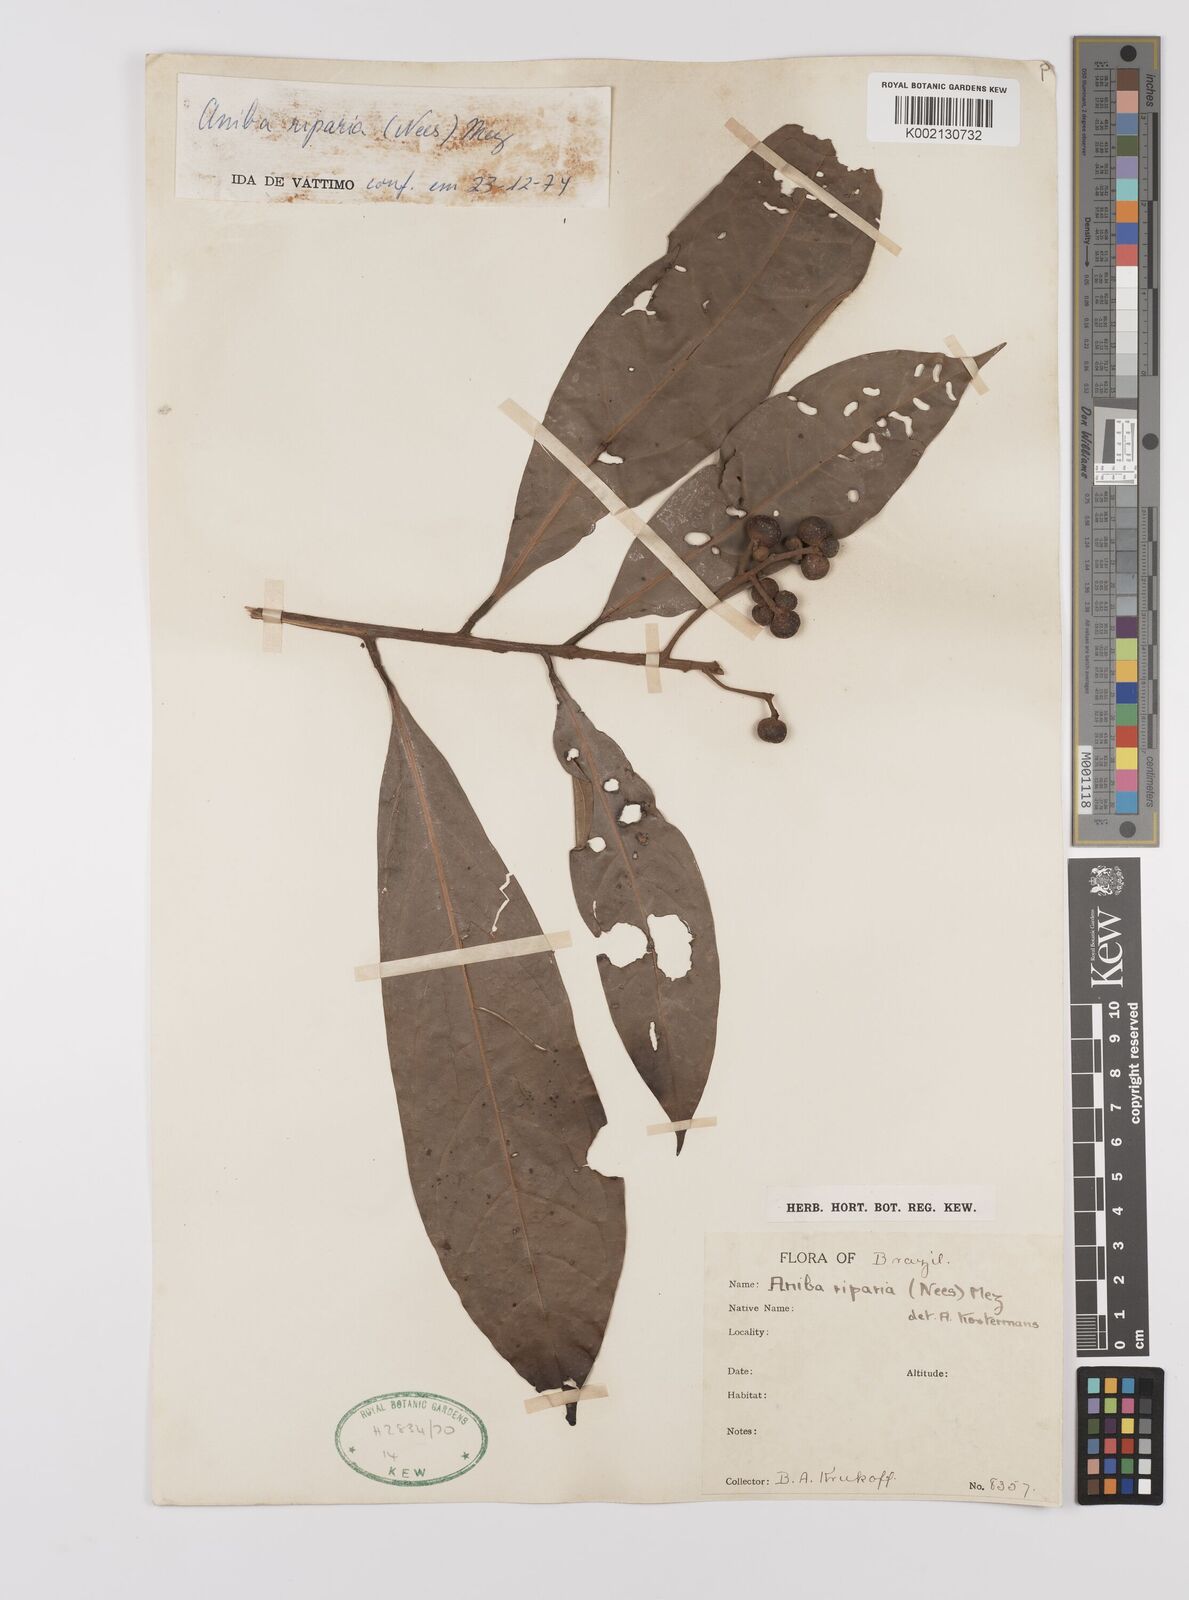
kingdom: Plantae
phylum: Tracheophyta
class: Magnoliopsida
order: Laurales
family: Lauraceae
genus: Aniba
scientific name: Aniba riparia
